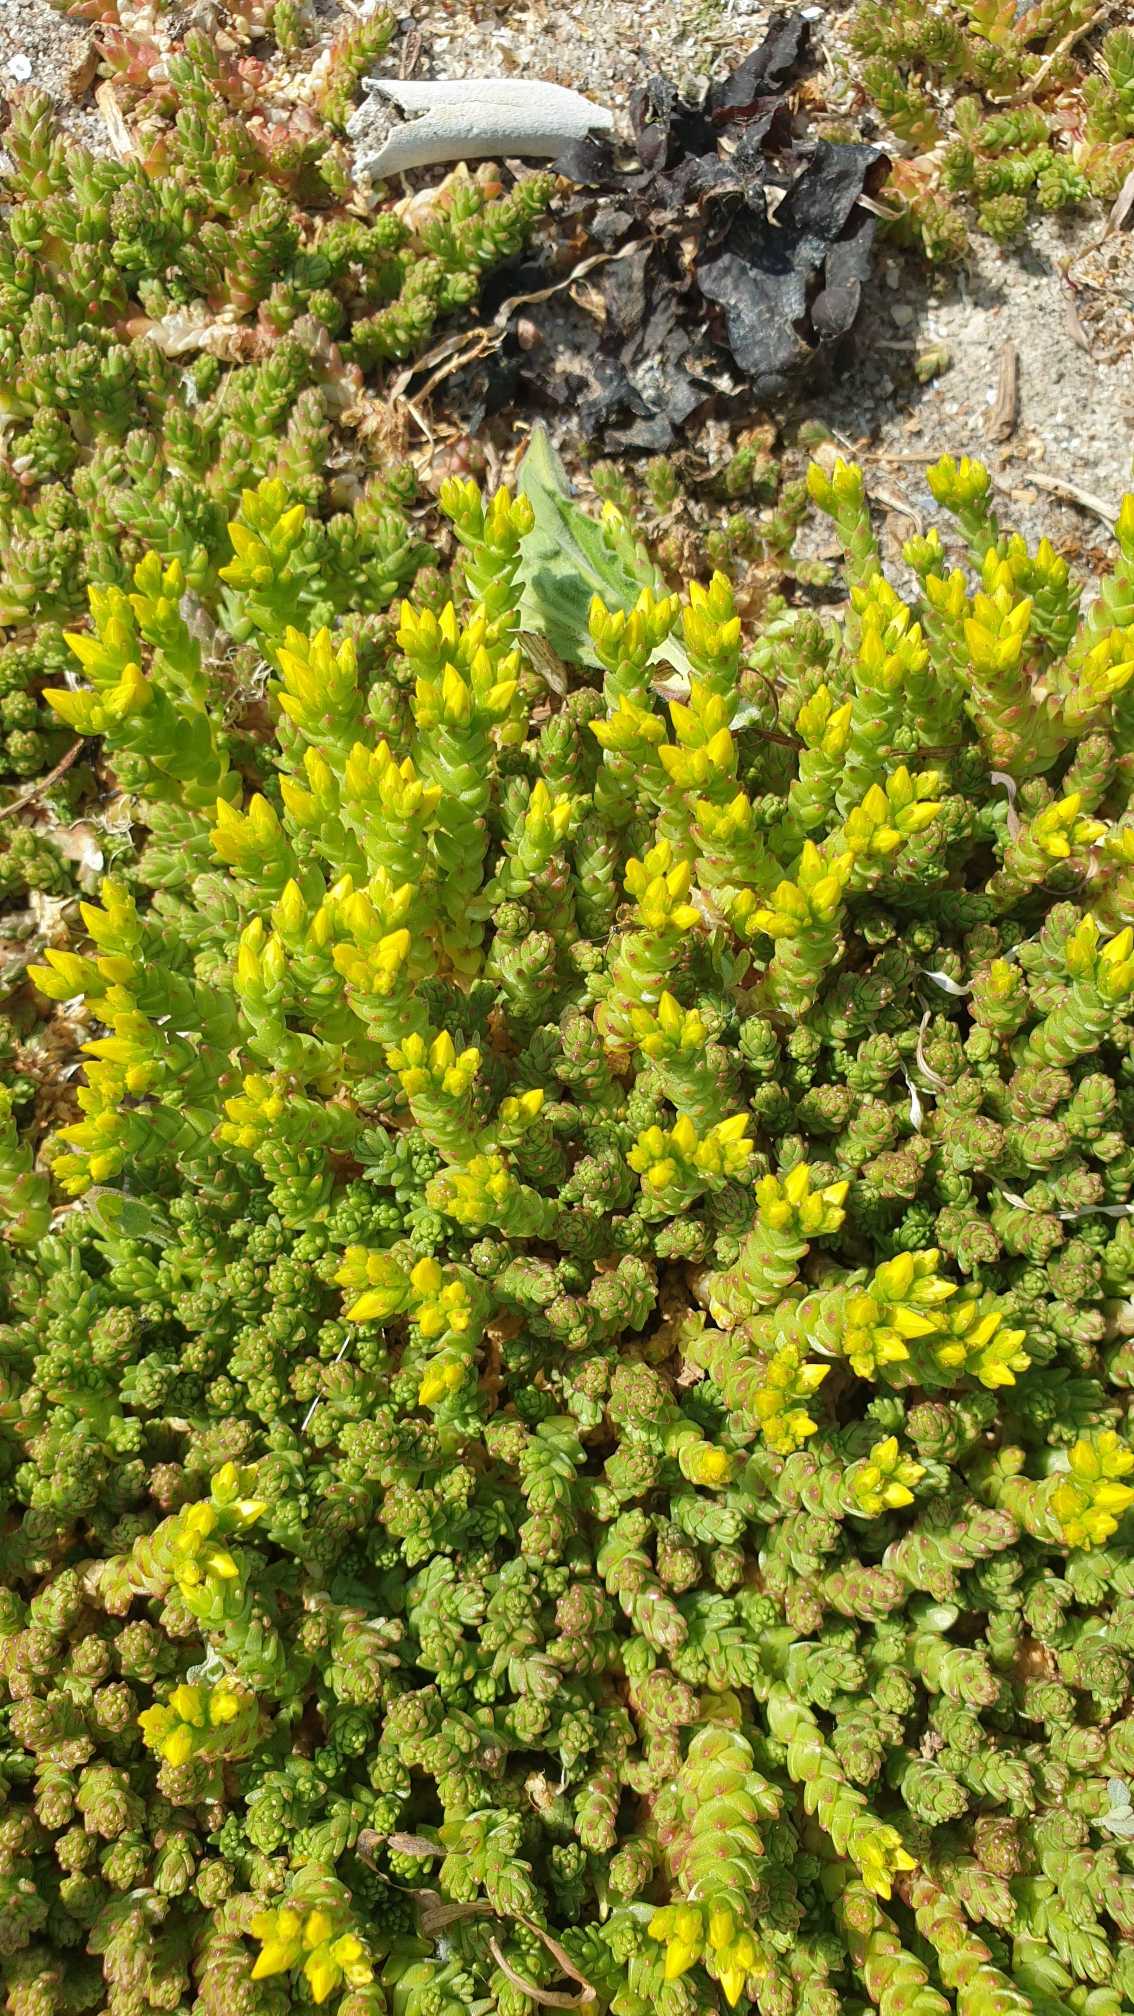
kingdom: Plantae
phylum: Tracheophyta
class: Magnoliopsida
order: Saxifragales
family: Crassulaceae
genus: Sedum
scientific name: Sedum acre
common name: Bidende stenurt
